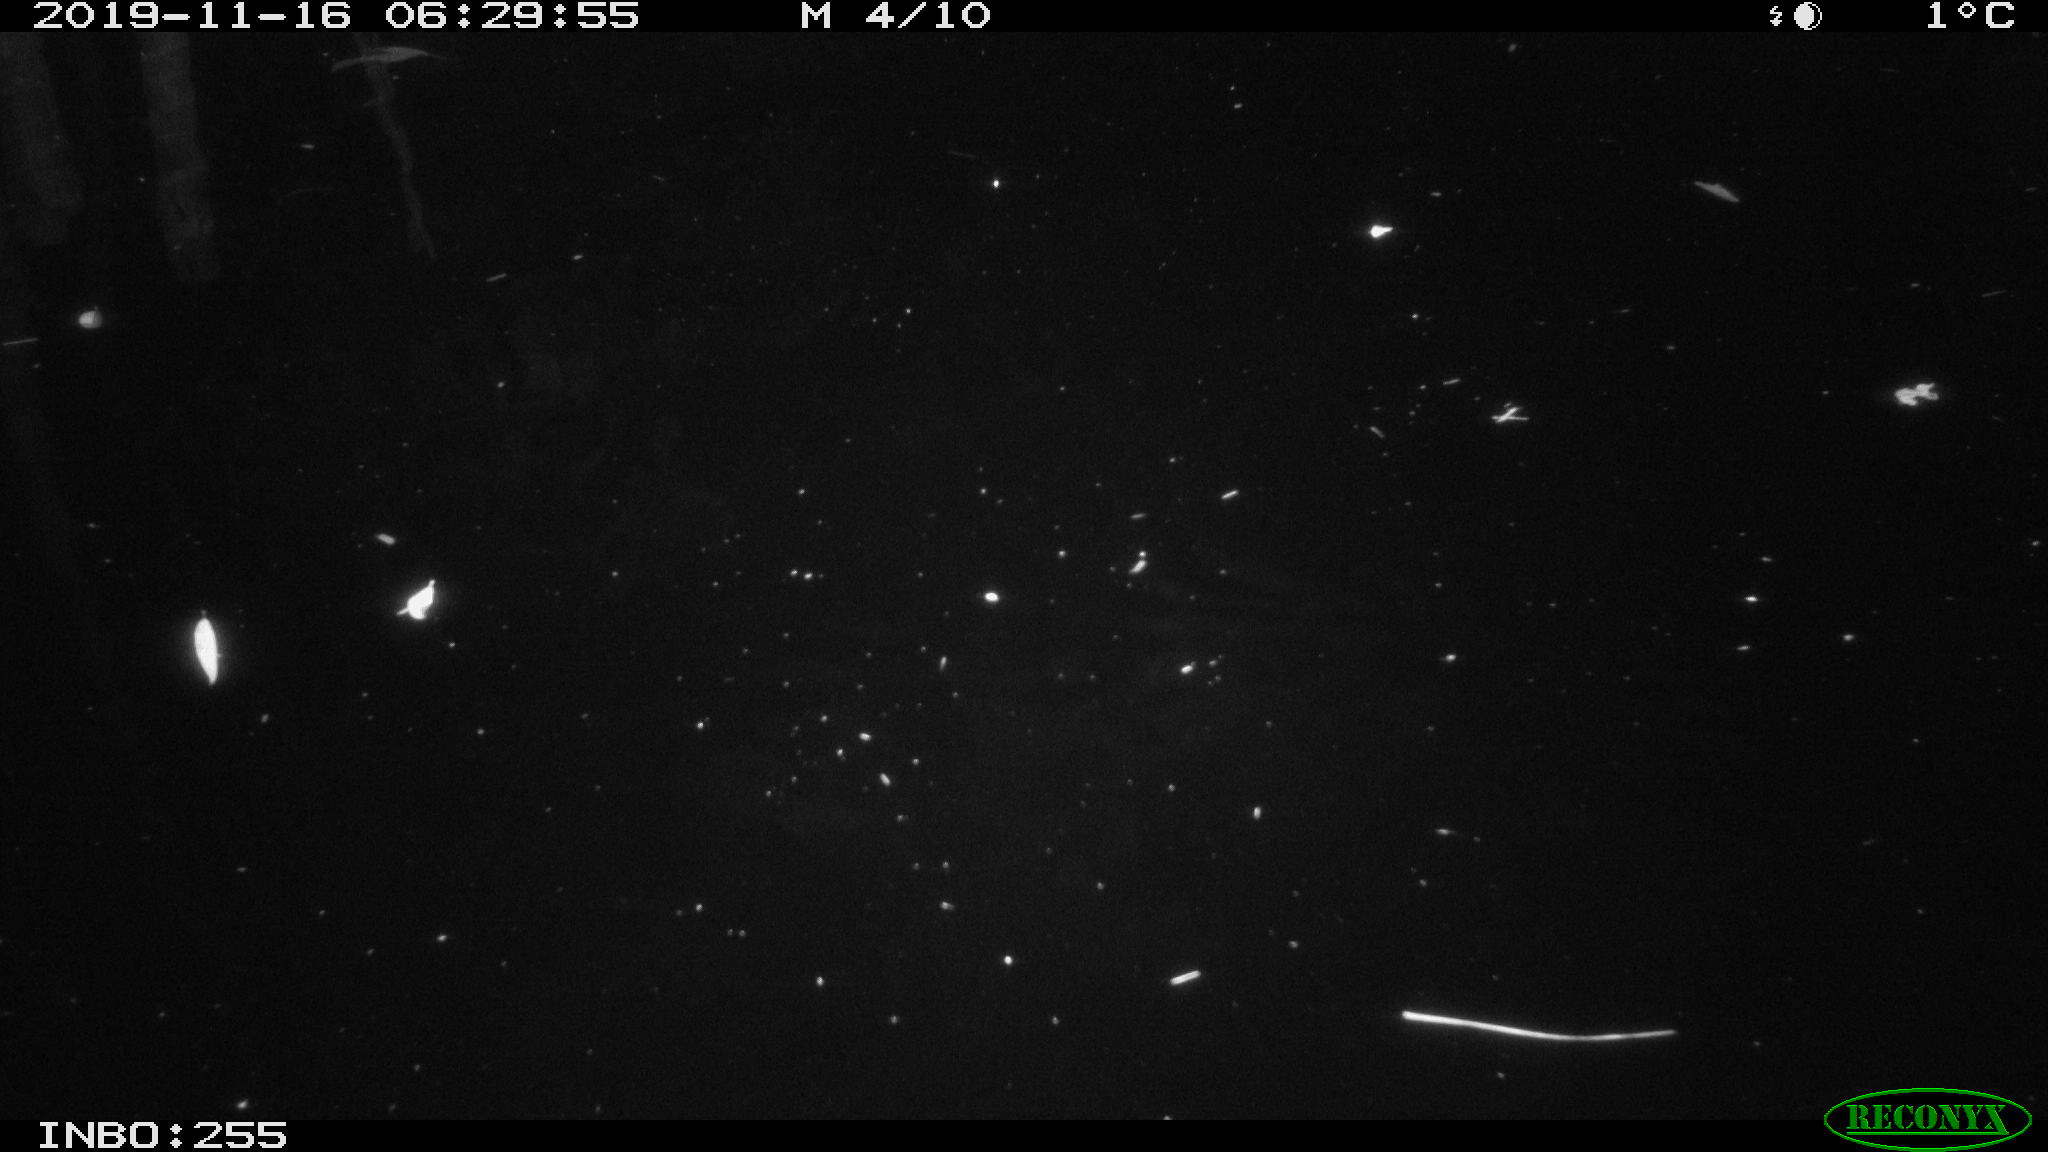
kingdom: Animalia
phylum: Chordata
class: Mammalia
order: Rodentia
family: Muridae
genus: Rattus
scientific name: Rattus norvegicus
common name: Brown rat
